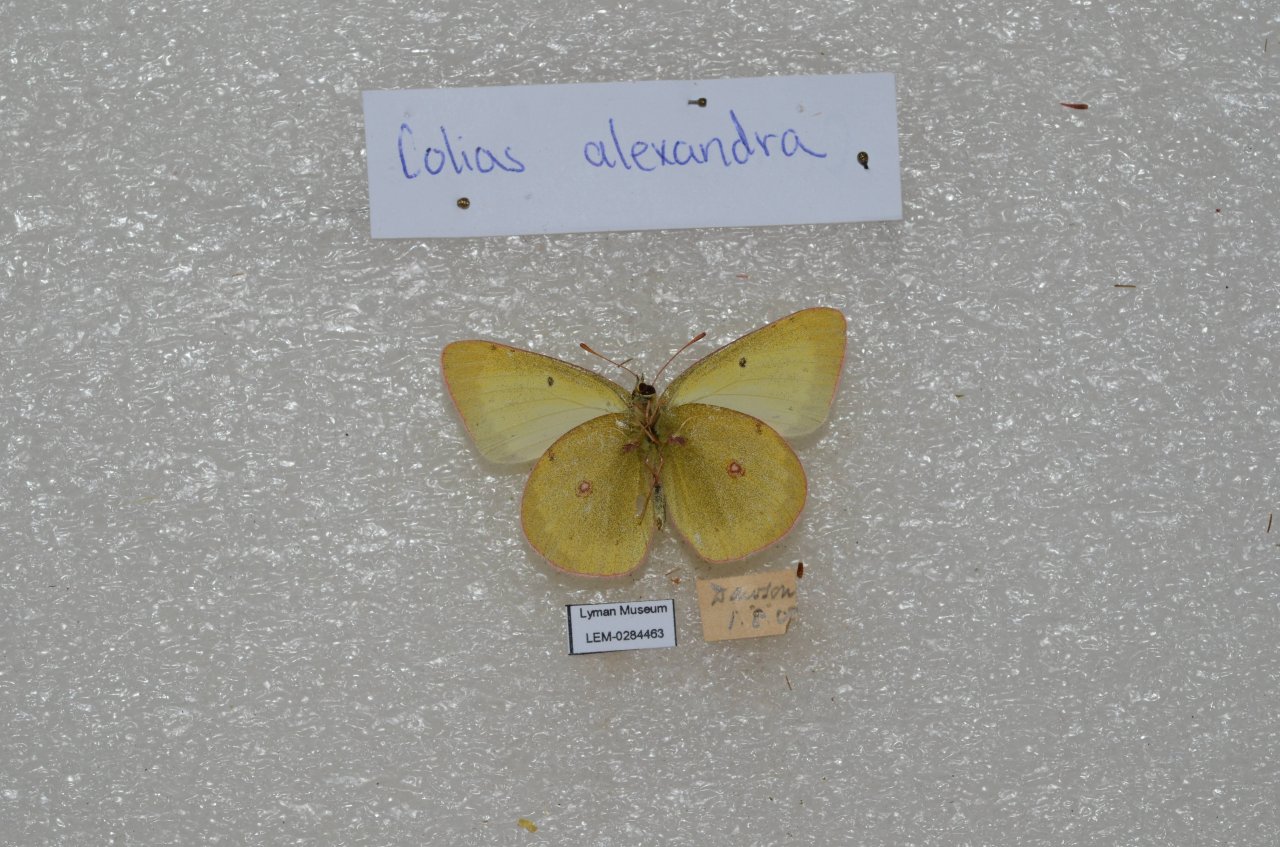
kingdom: Animalia
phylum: Arthropoda
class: Insecta
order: Lepidoptera
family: Pieridae
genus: Colias
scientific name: Colias
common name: Clouded Yellows
